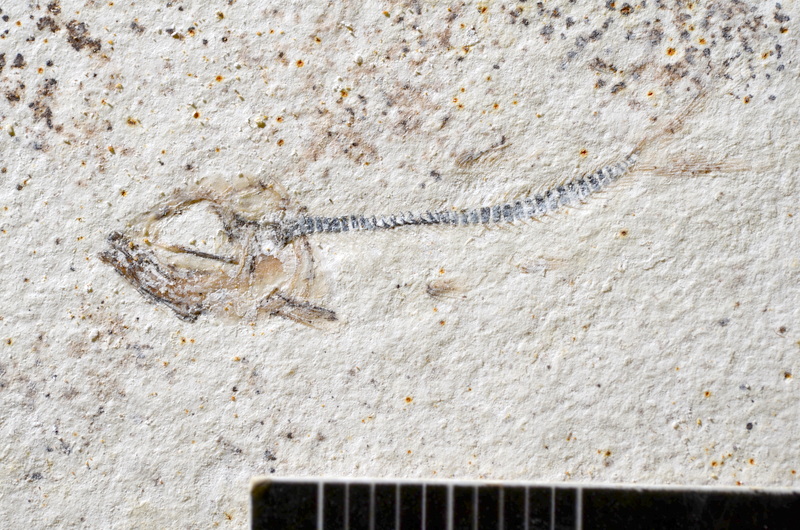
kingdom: Animalia
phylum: Chordata
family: Ascalaboidae
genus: Ebertichthys
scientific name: Ebertichthys ettlingensis
